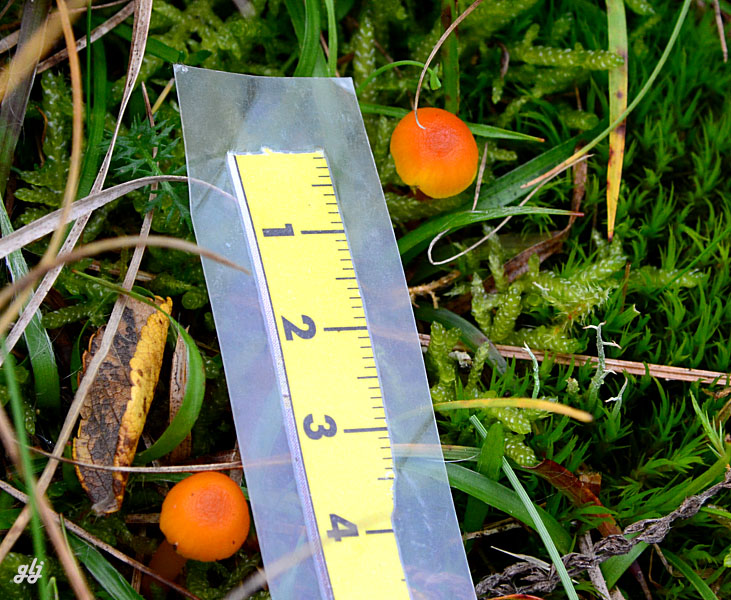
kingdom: Fungi
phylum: Basidiomycota
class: Agaricomycetes
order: Agaricales
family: Hygrophoraceae
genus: Hygrocybe
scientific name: Hygrocybe ceracea
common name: voksgul vokshat
